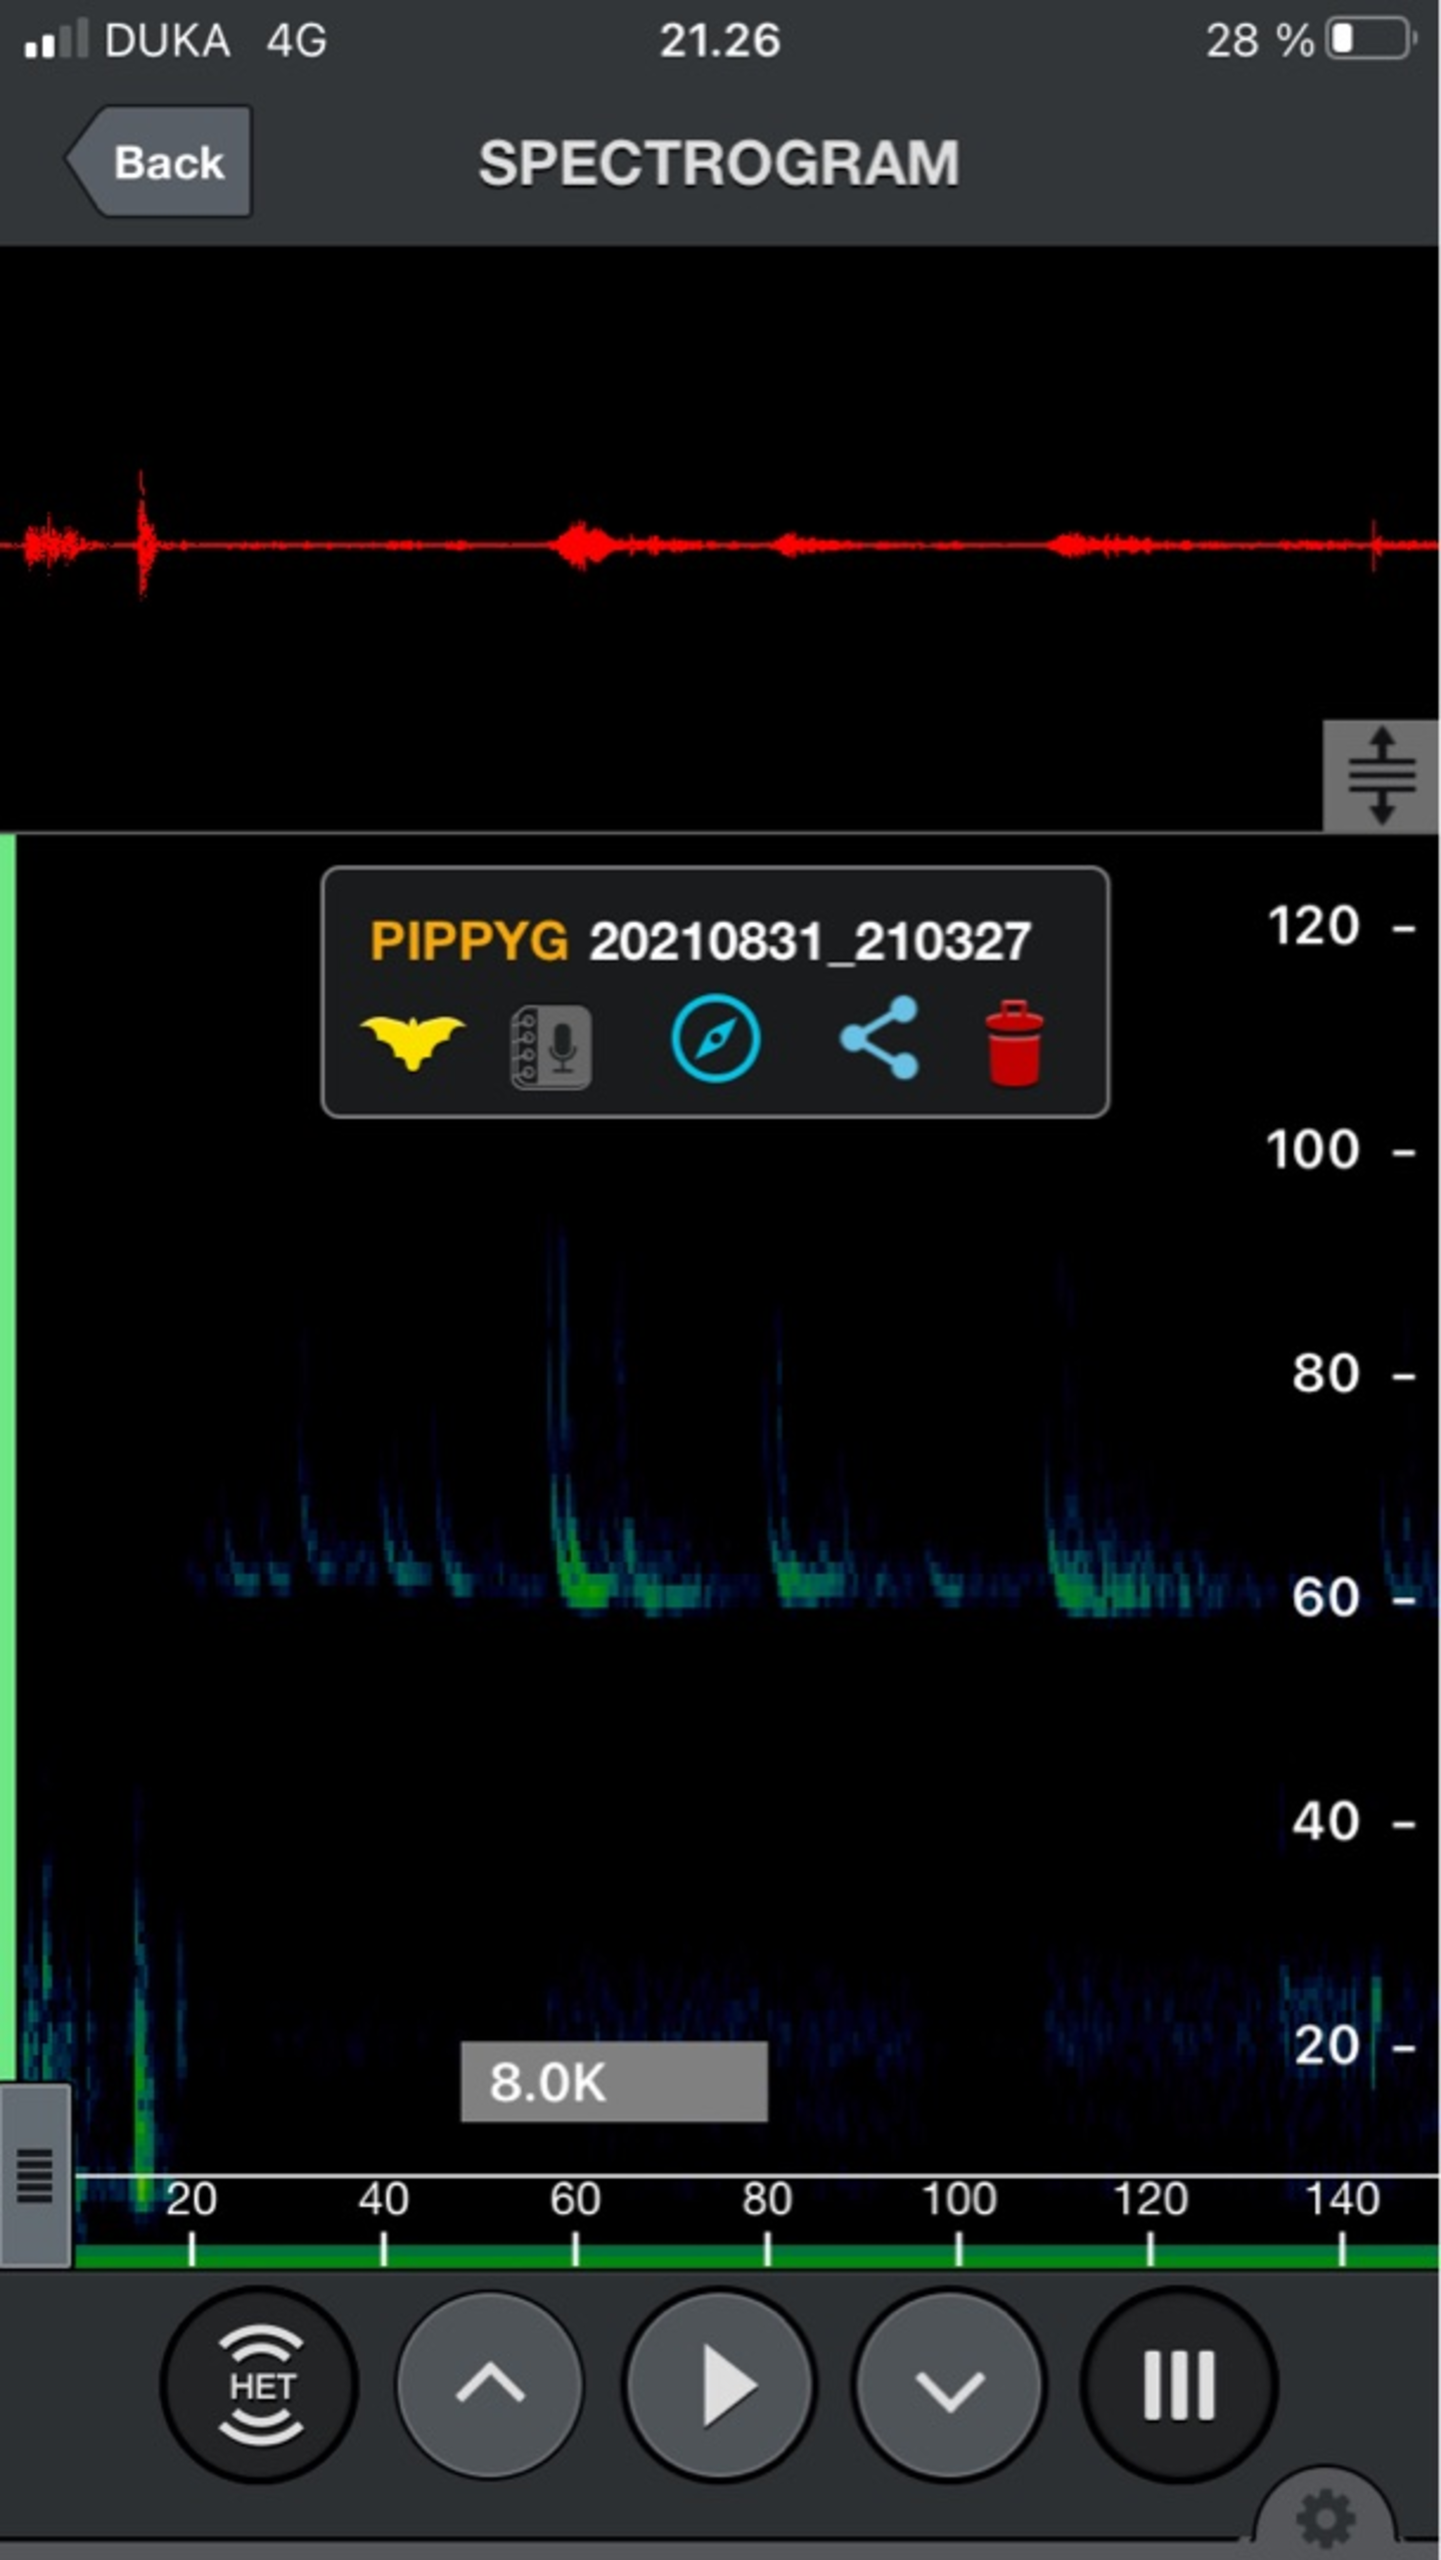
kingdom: Animalia
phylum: Chordata
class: Mammalia
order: Chiroptera
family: Vespertilionidae
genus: Pipistrellus
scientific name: Pipistrellus pygmaeus
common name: Dværgflagermus
